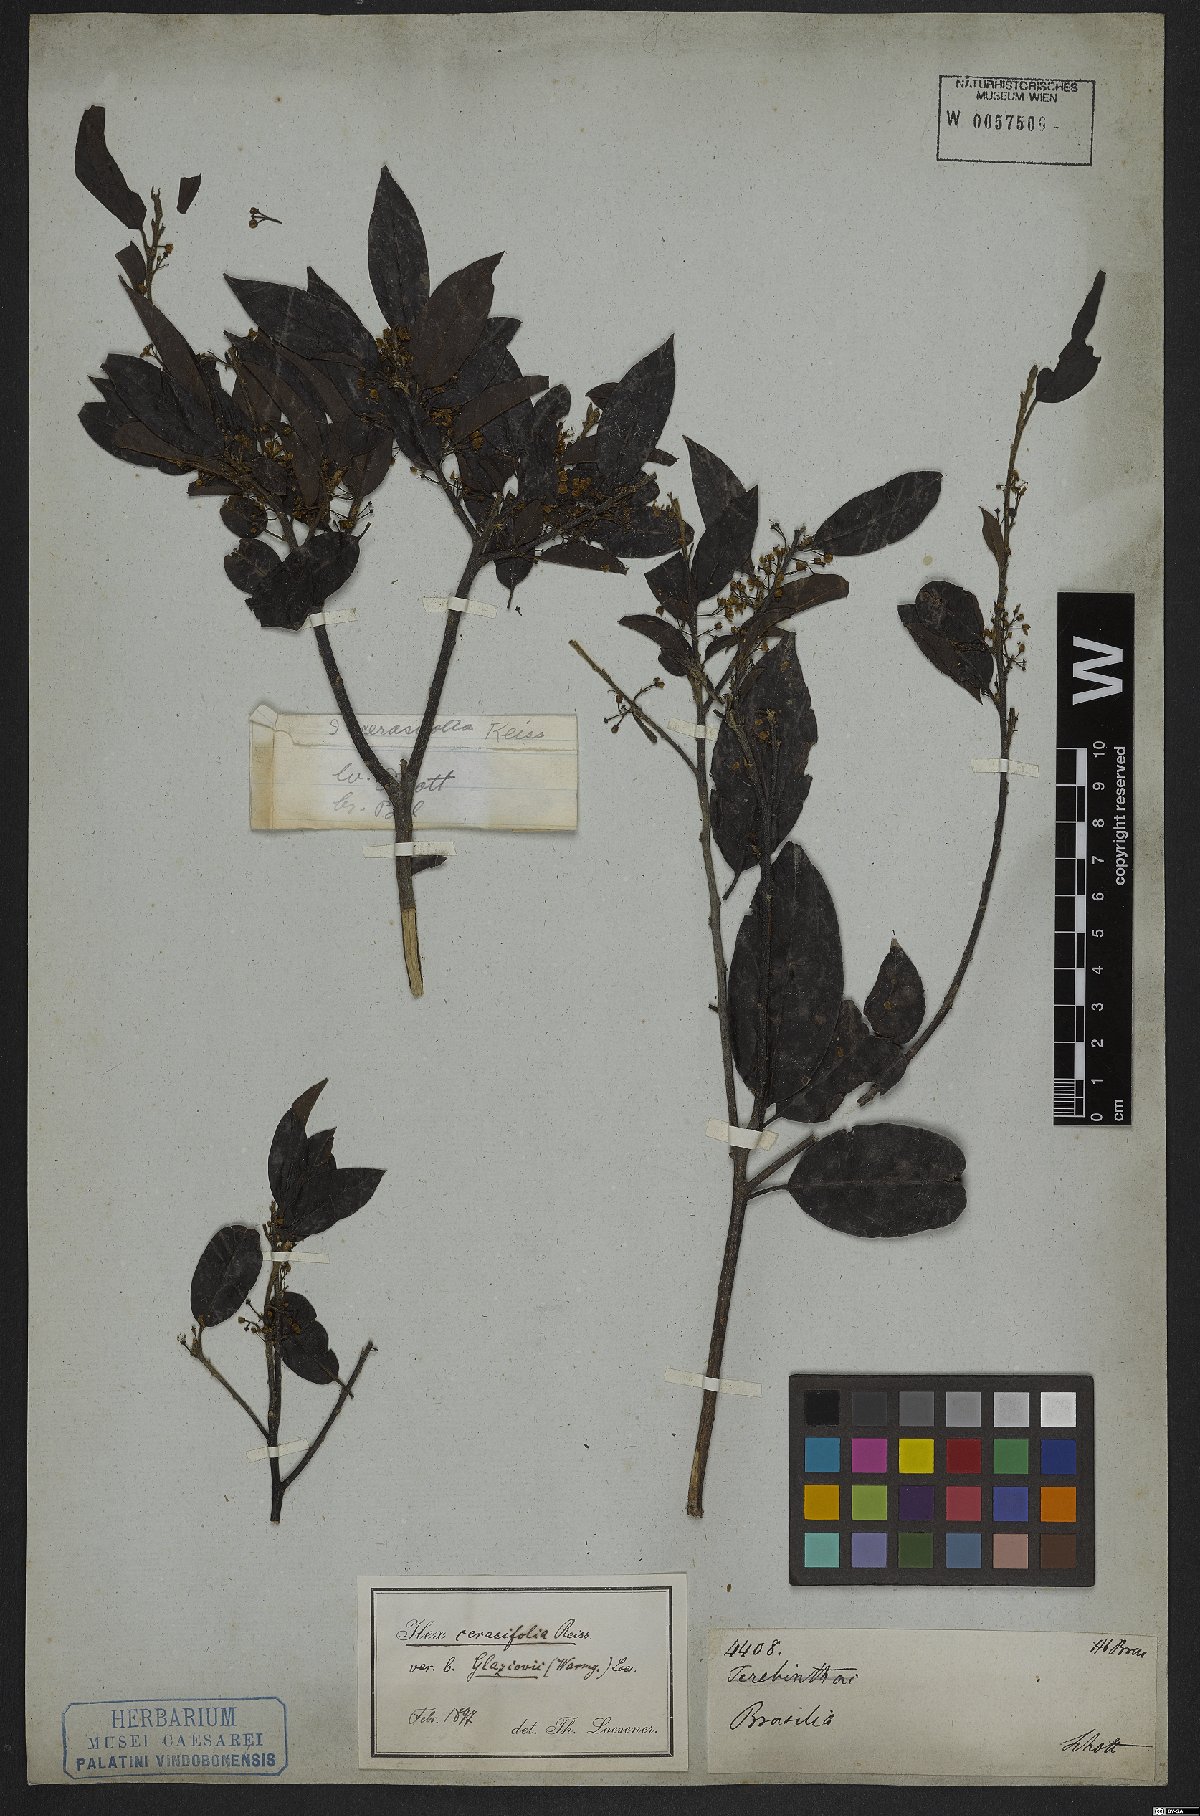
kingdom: Plantae
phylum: Tracheophyta
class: Magnoliopsida
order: Aquifoliales
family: Aquifoliaceae
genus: Ilex
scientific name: Ilex cerasifolia
